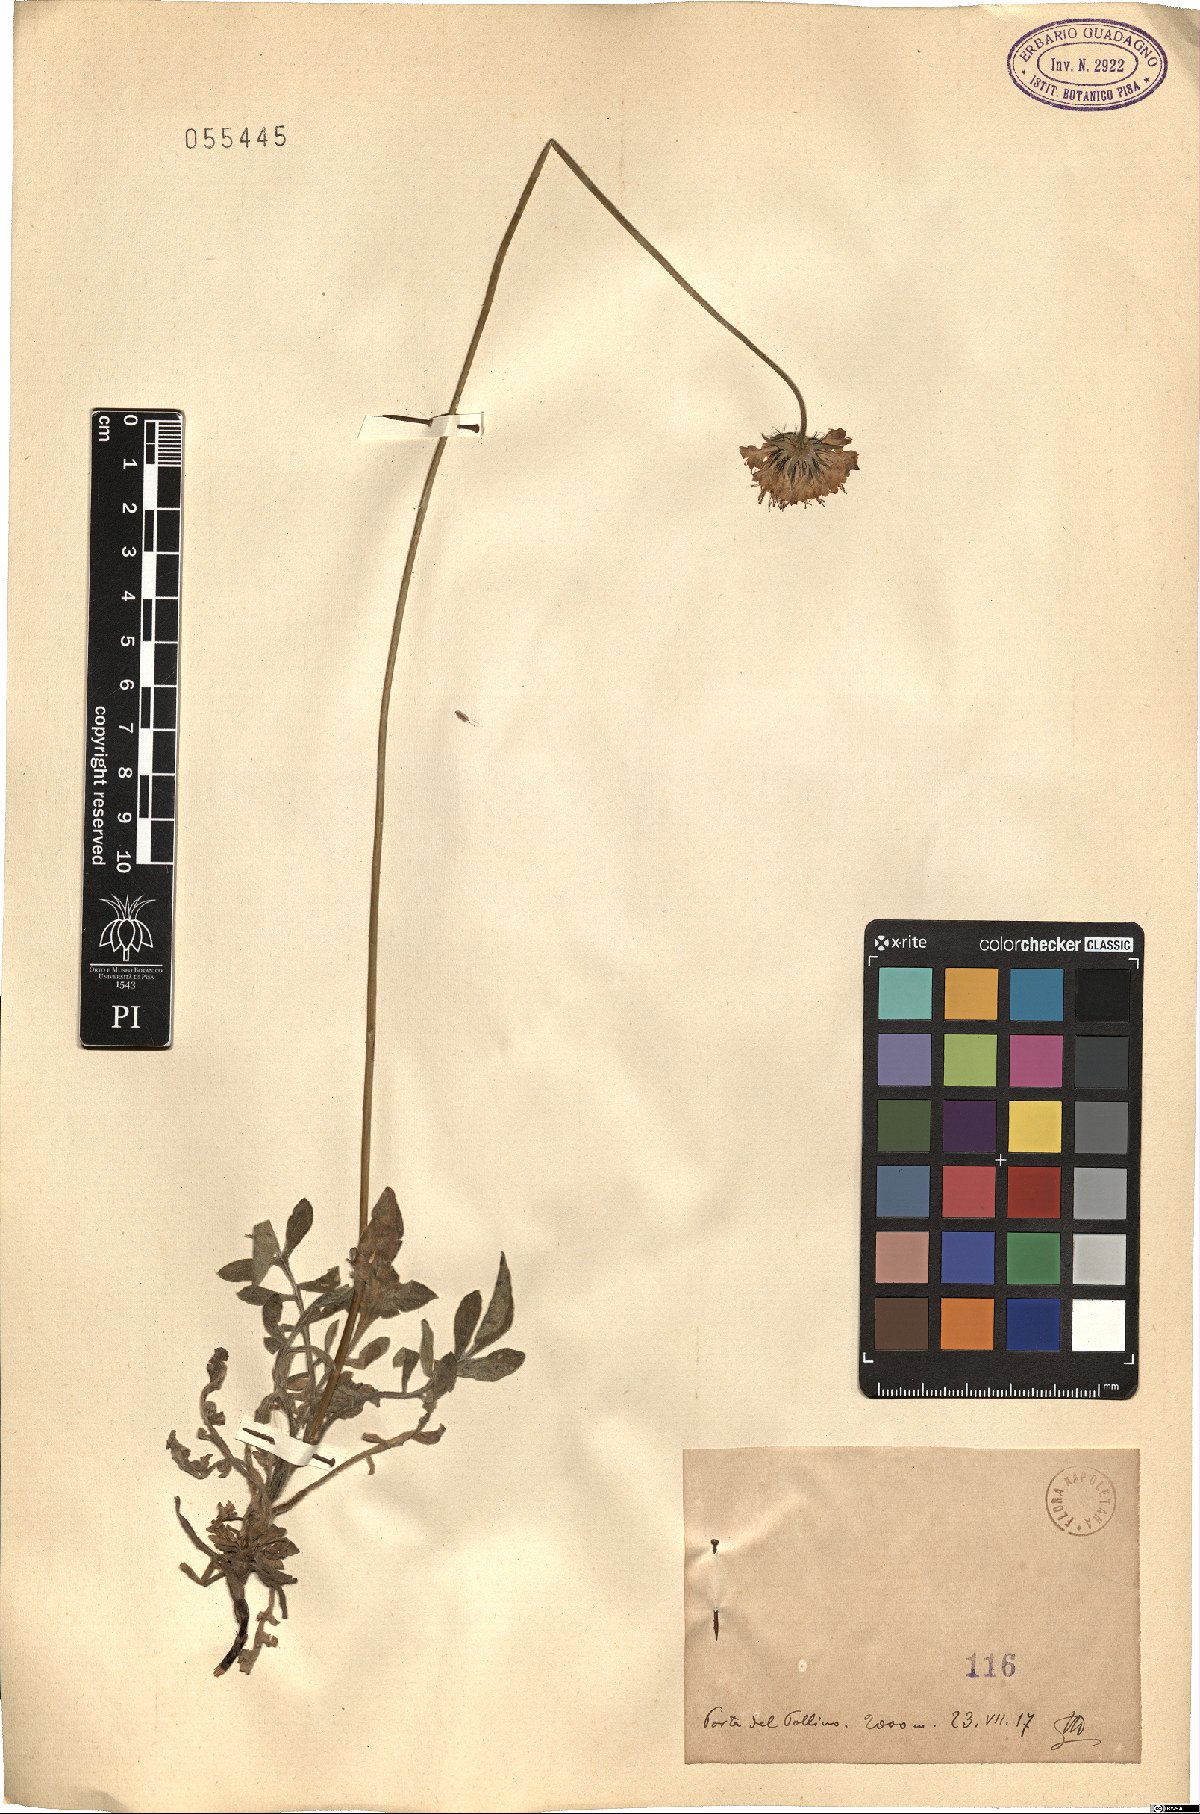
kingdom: Plantae
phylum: Tracheophyta
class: Magnoliopsida
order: Dipsacales
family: Caprifoliaceae
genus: Scabiosa
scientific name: Scabiosa
